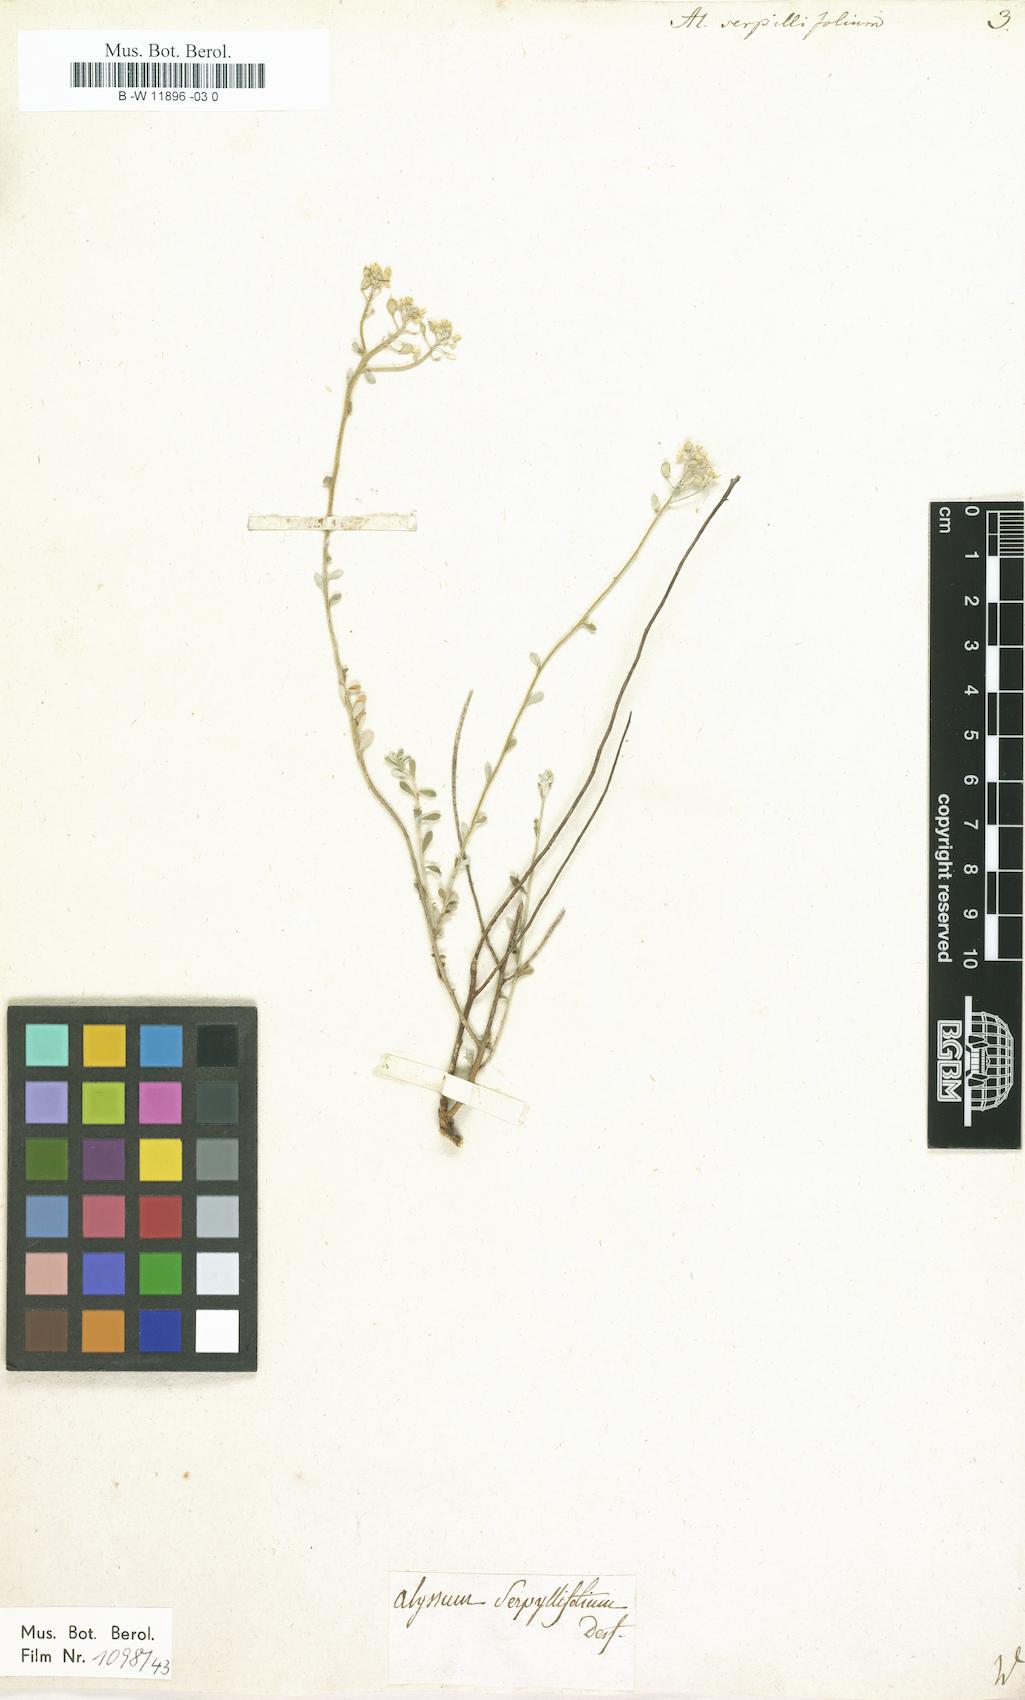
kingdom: Plantae
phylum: Tracheophyta
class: Magnoliopsida
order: Brassicales
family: Brassicaceae
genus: Odontarrhena
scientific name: Odontarrhena serpyllifolia
